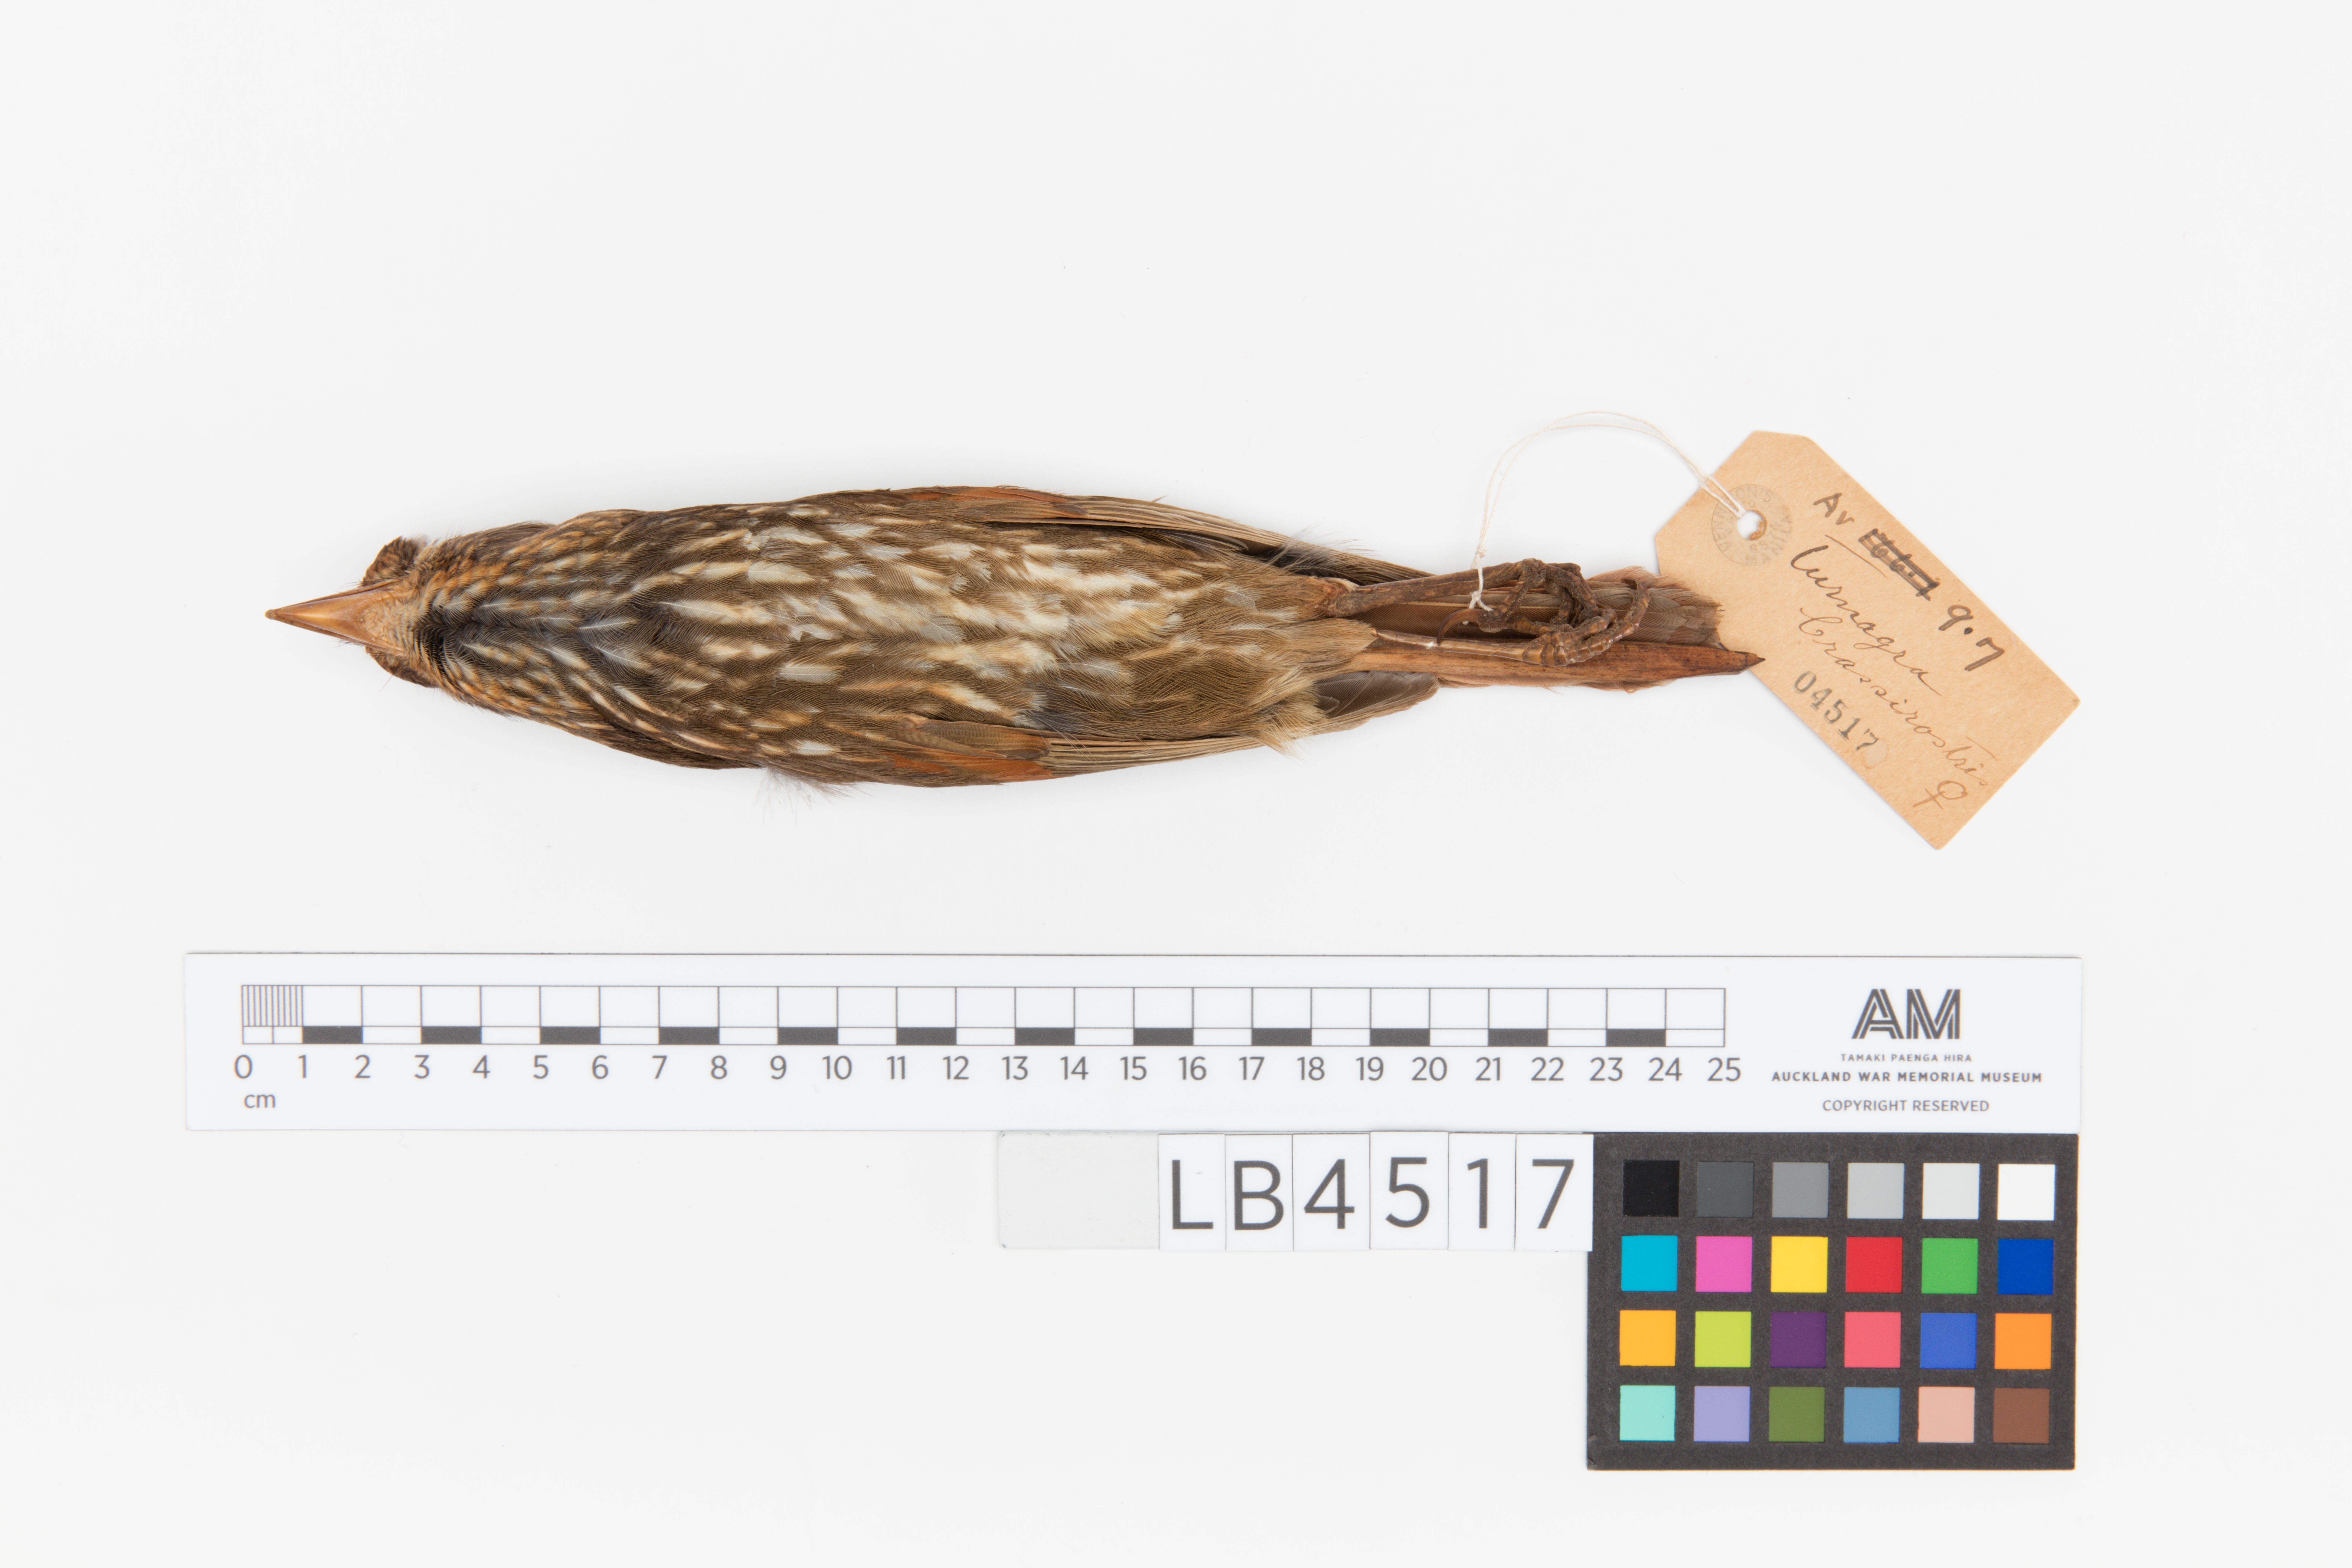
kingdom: Animalia
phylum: Chordata
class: Aves
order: Passeriformes
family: Ptilonorhynchidae
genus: Turnagra
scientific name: Turnagra capensis
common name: South island piopio
